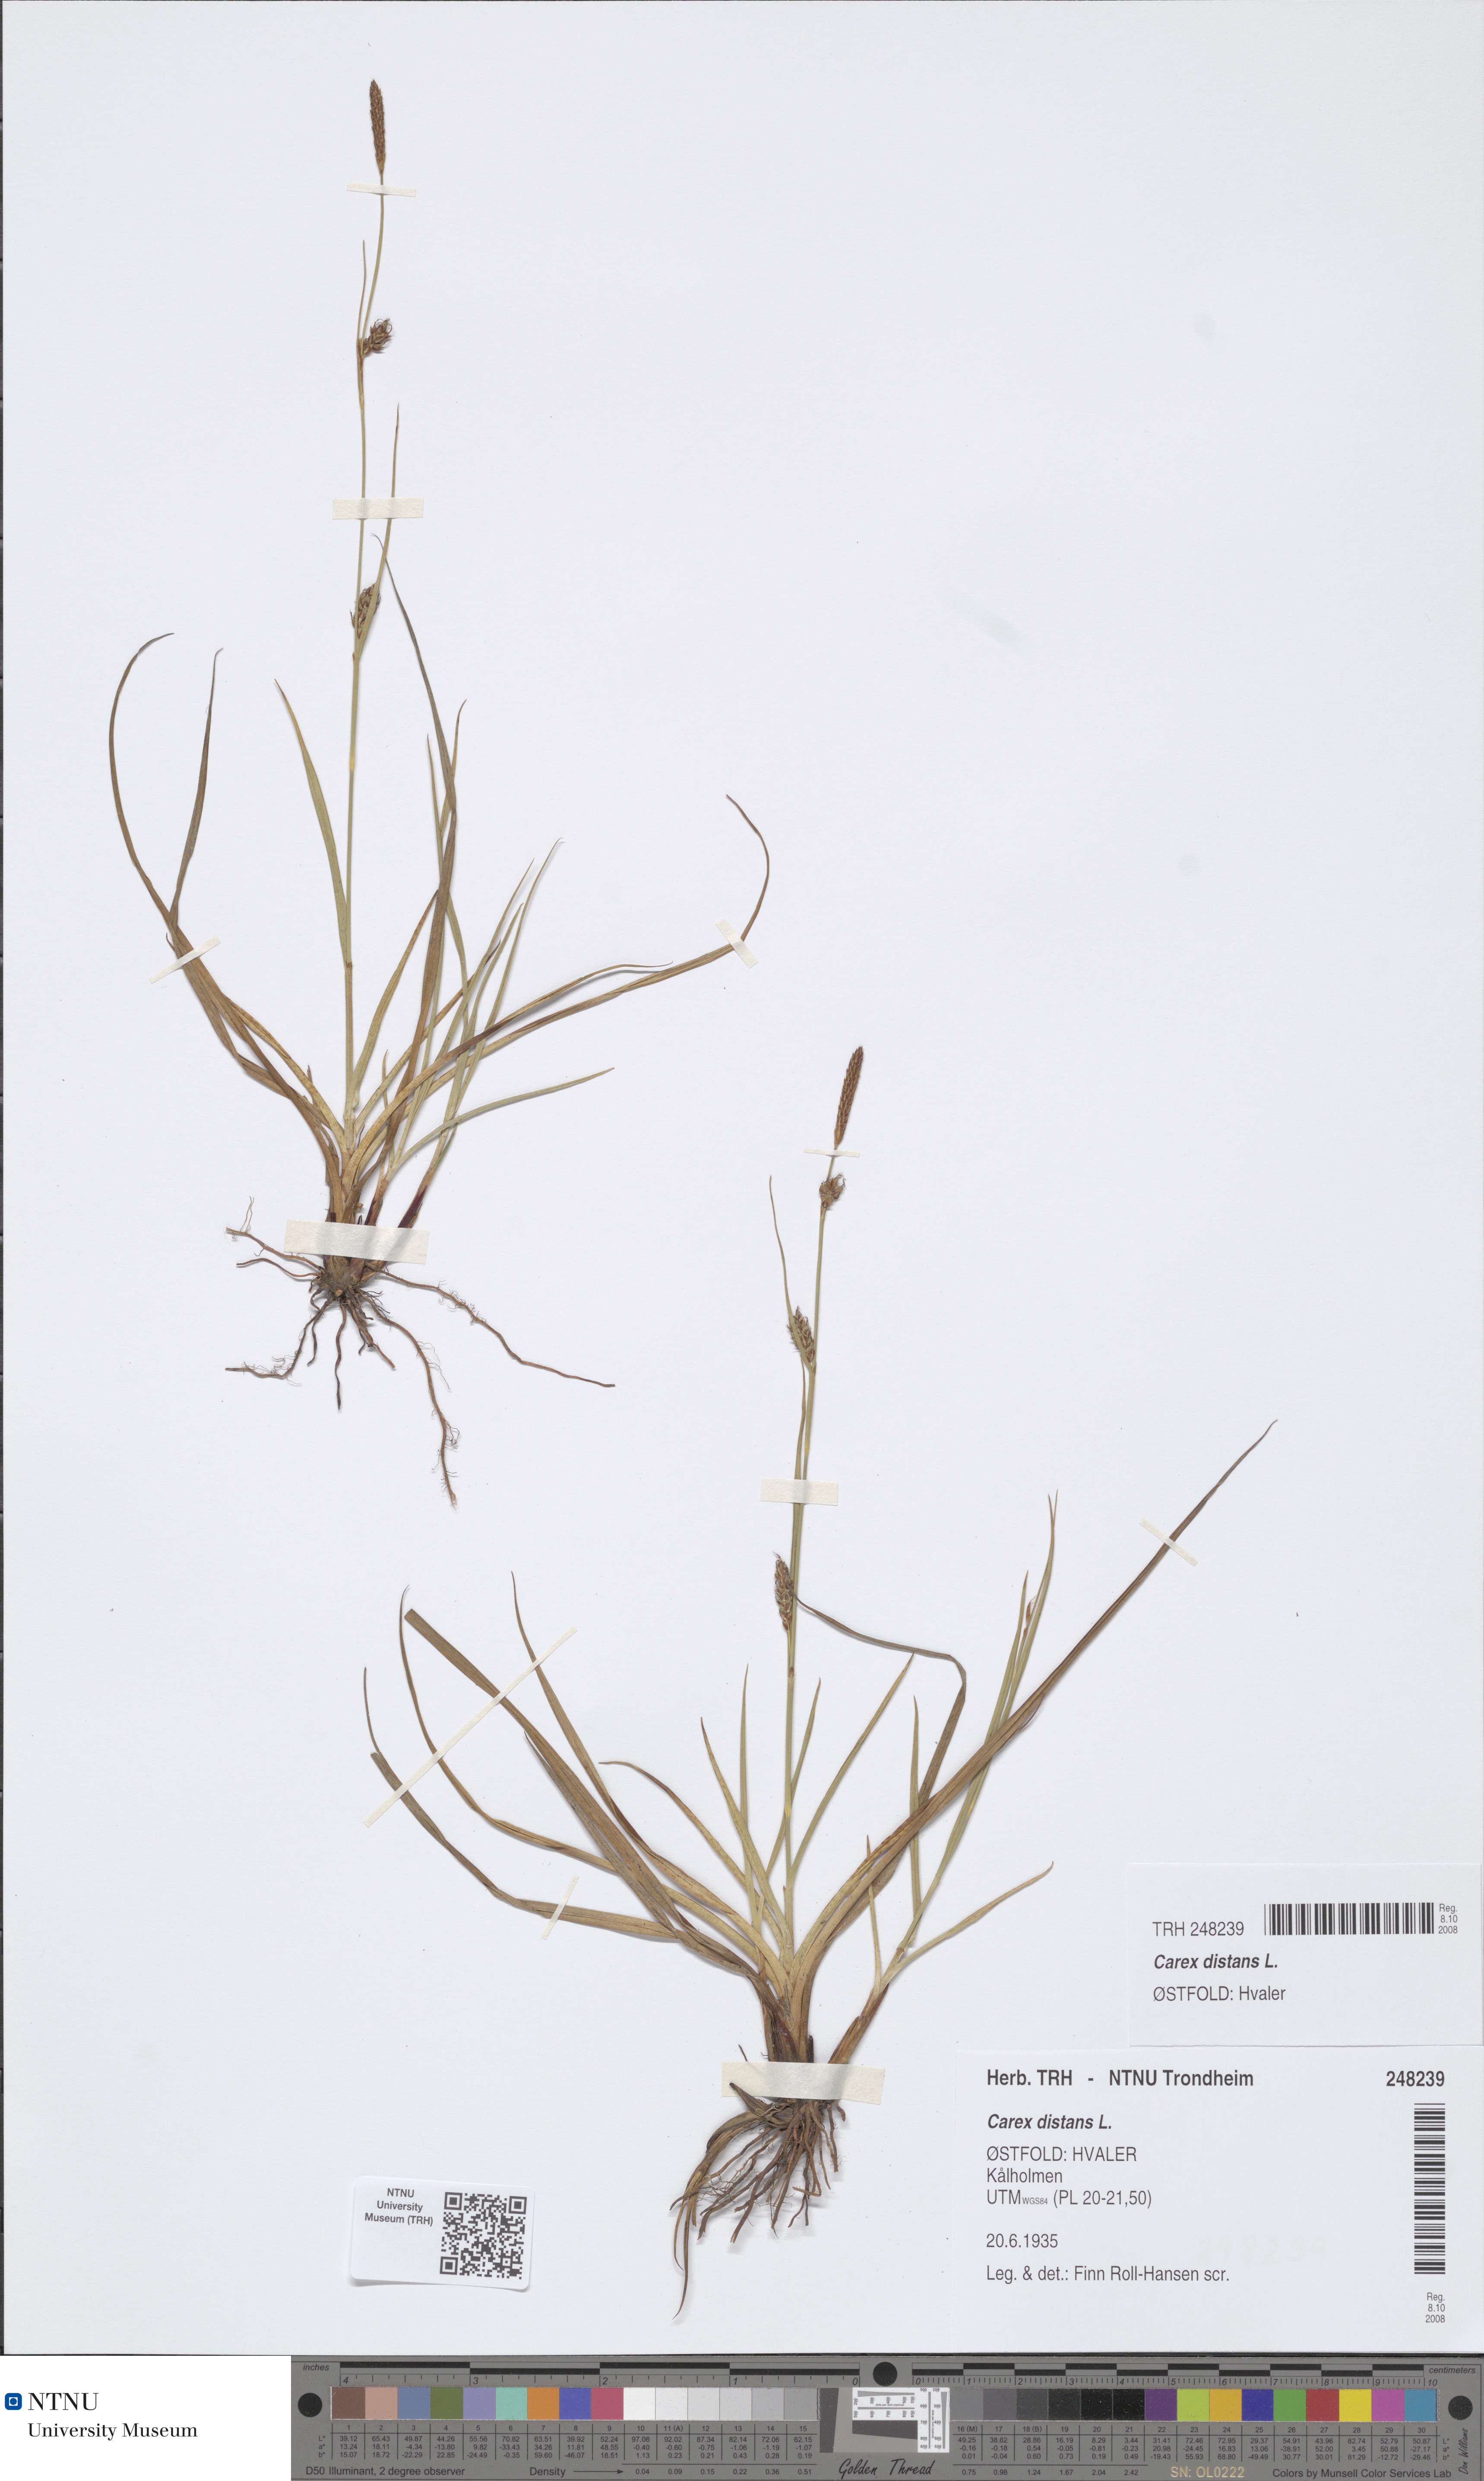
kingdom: Plantae
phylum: Tracheophyta
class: Liliopsida
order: Poales
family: Cyperaceae
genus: Carex
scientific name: Carex distans
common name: Distant sedge
